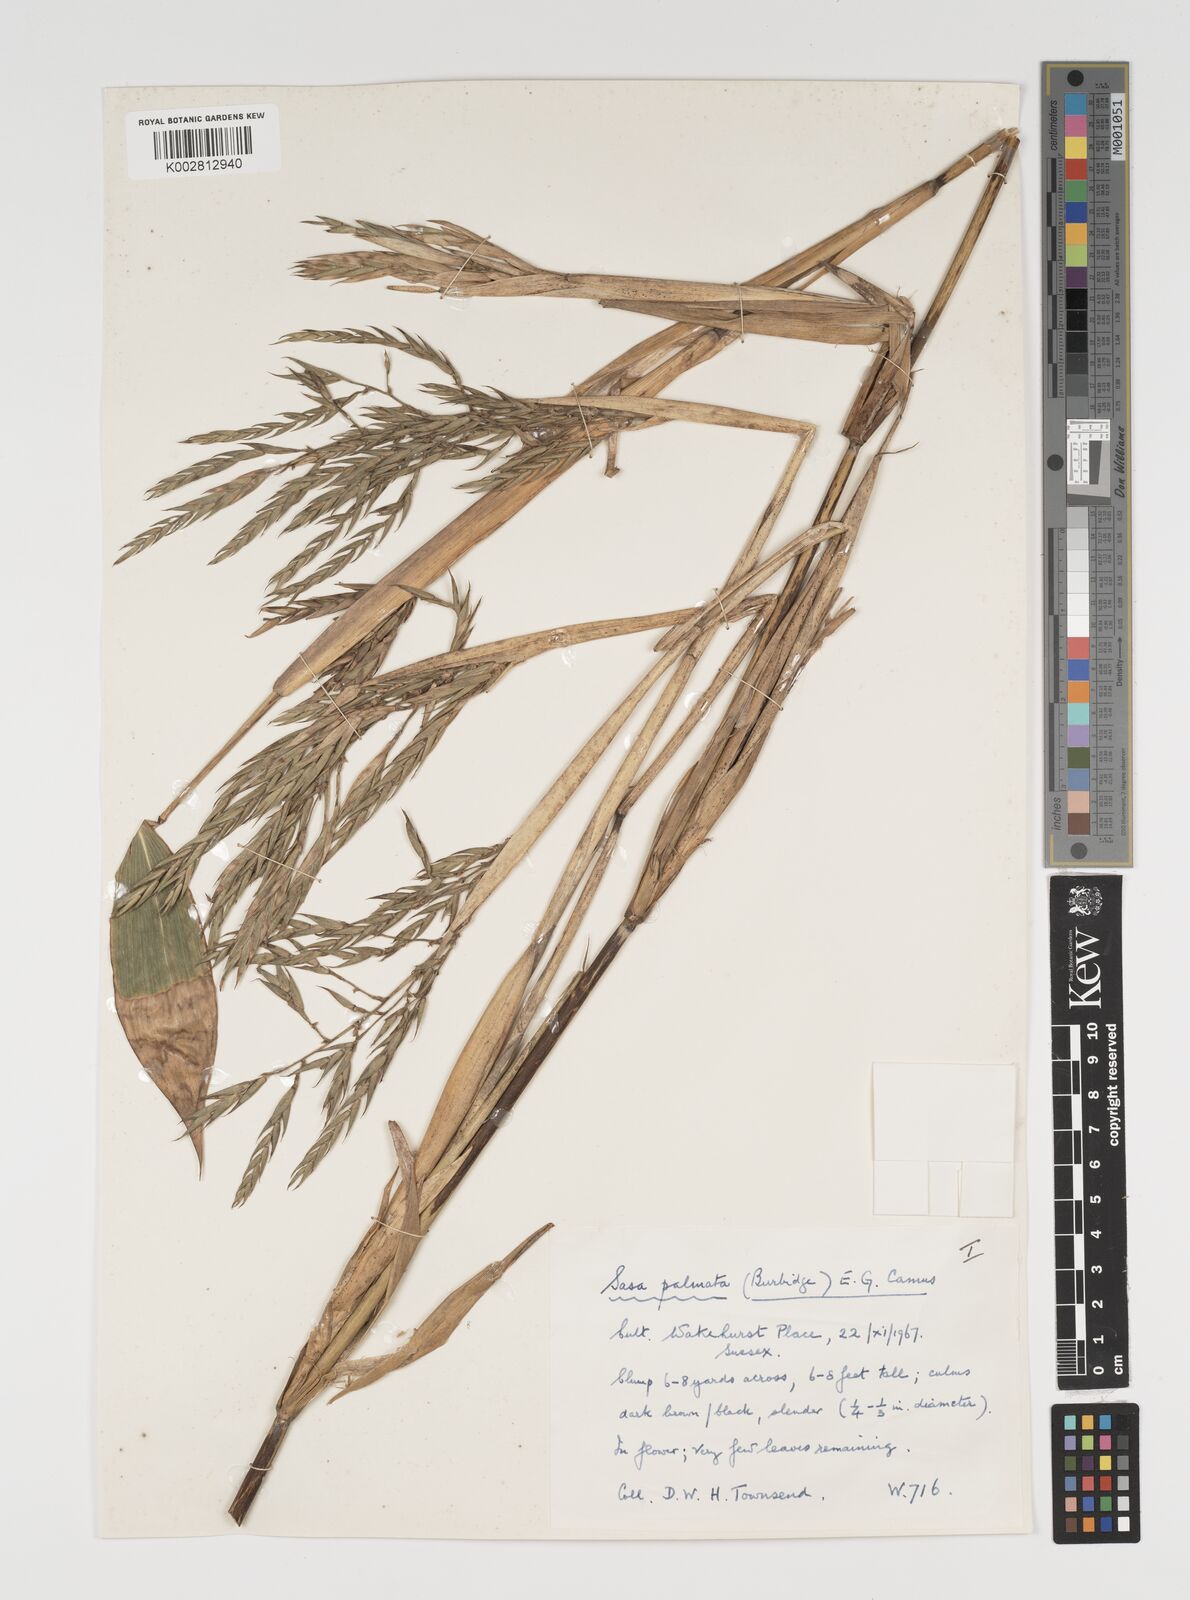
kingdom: Plantae
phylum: Tracheophyta
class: Liliopsida
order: Poales
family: Poaceae
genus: Sasa
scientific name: Sasa palmata
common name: Broad-leaved bamboo
